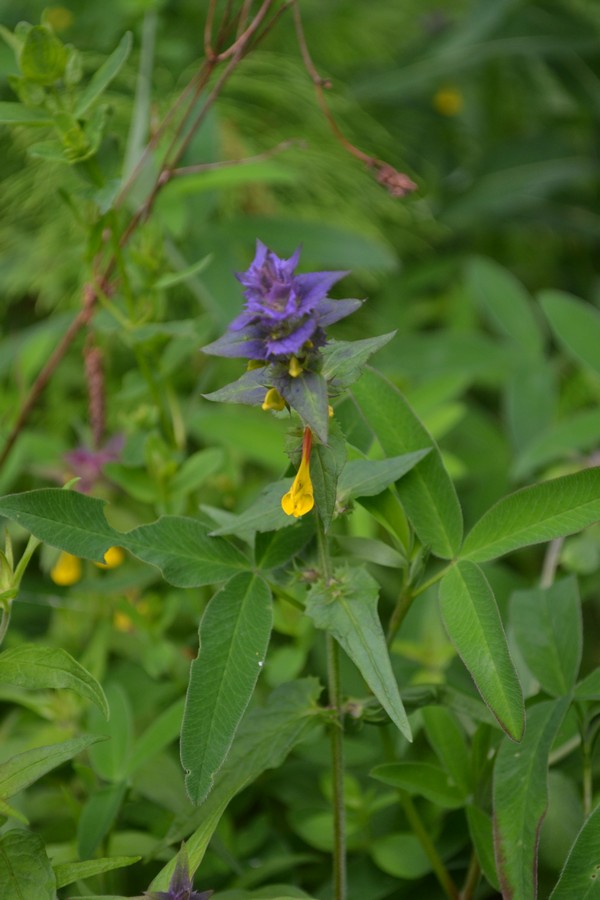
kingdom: Plantae
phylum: Tracheophyta
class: Magnoliopsida
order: Lamiales
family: Orobanchaceae
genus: Melampyrum
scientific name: Melampyrum nemorosum
